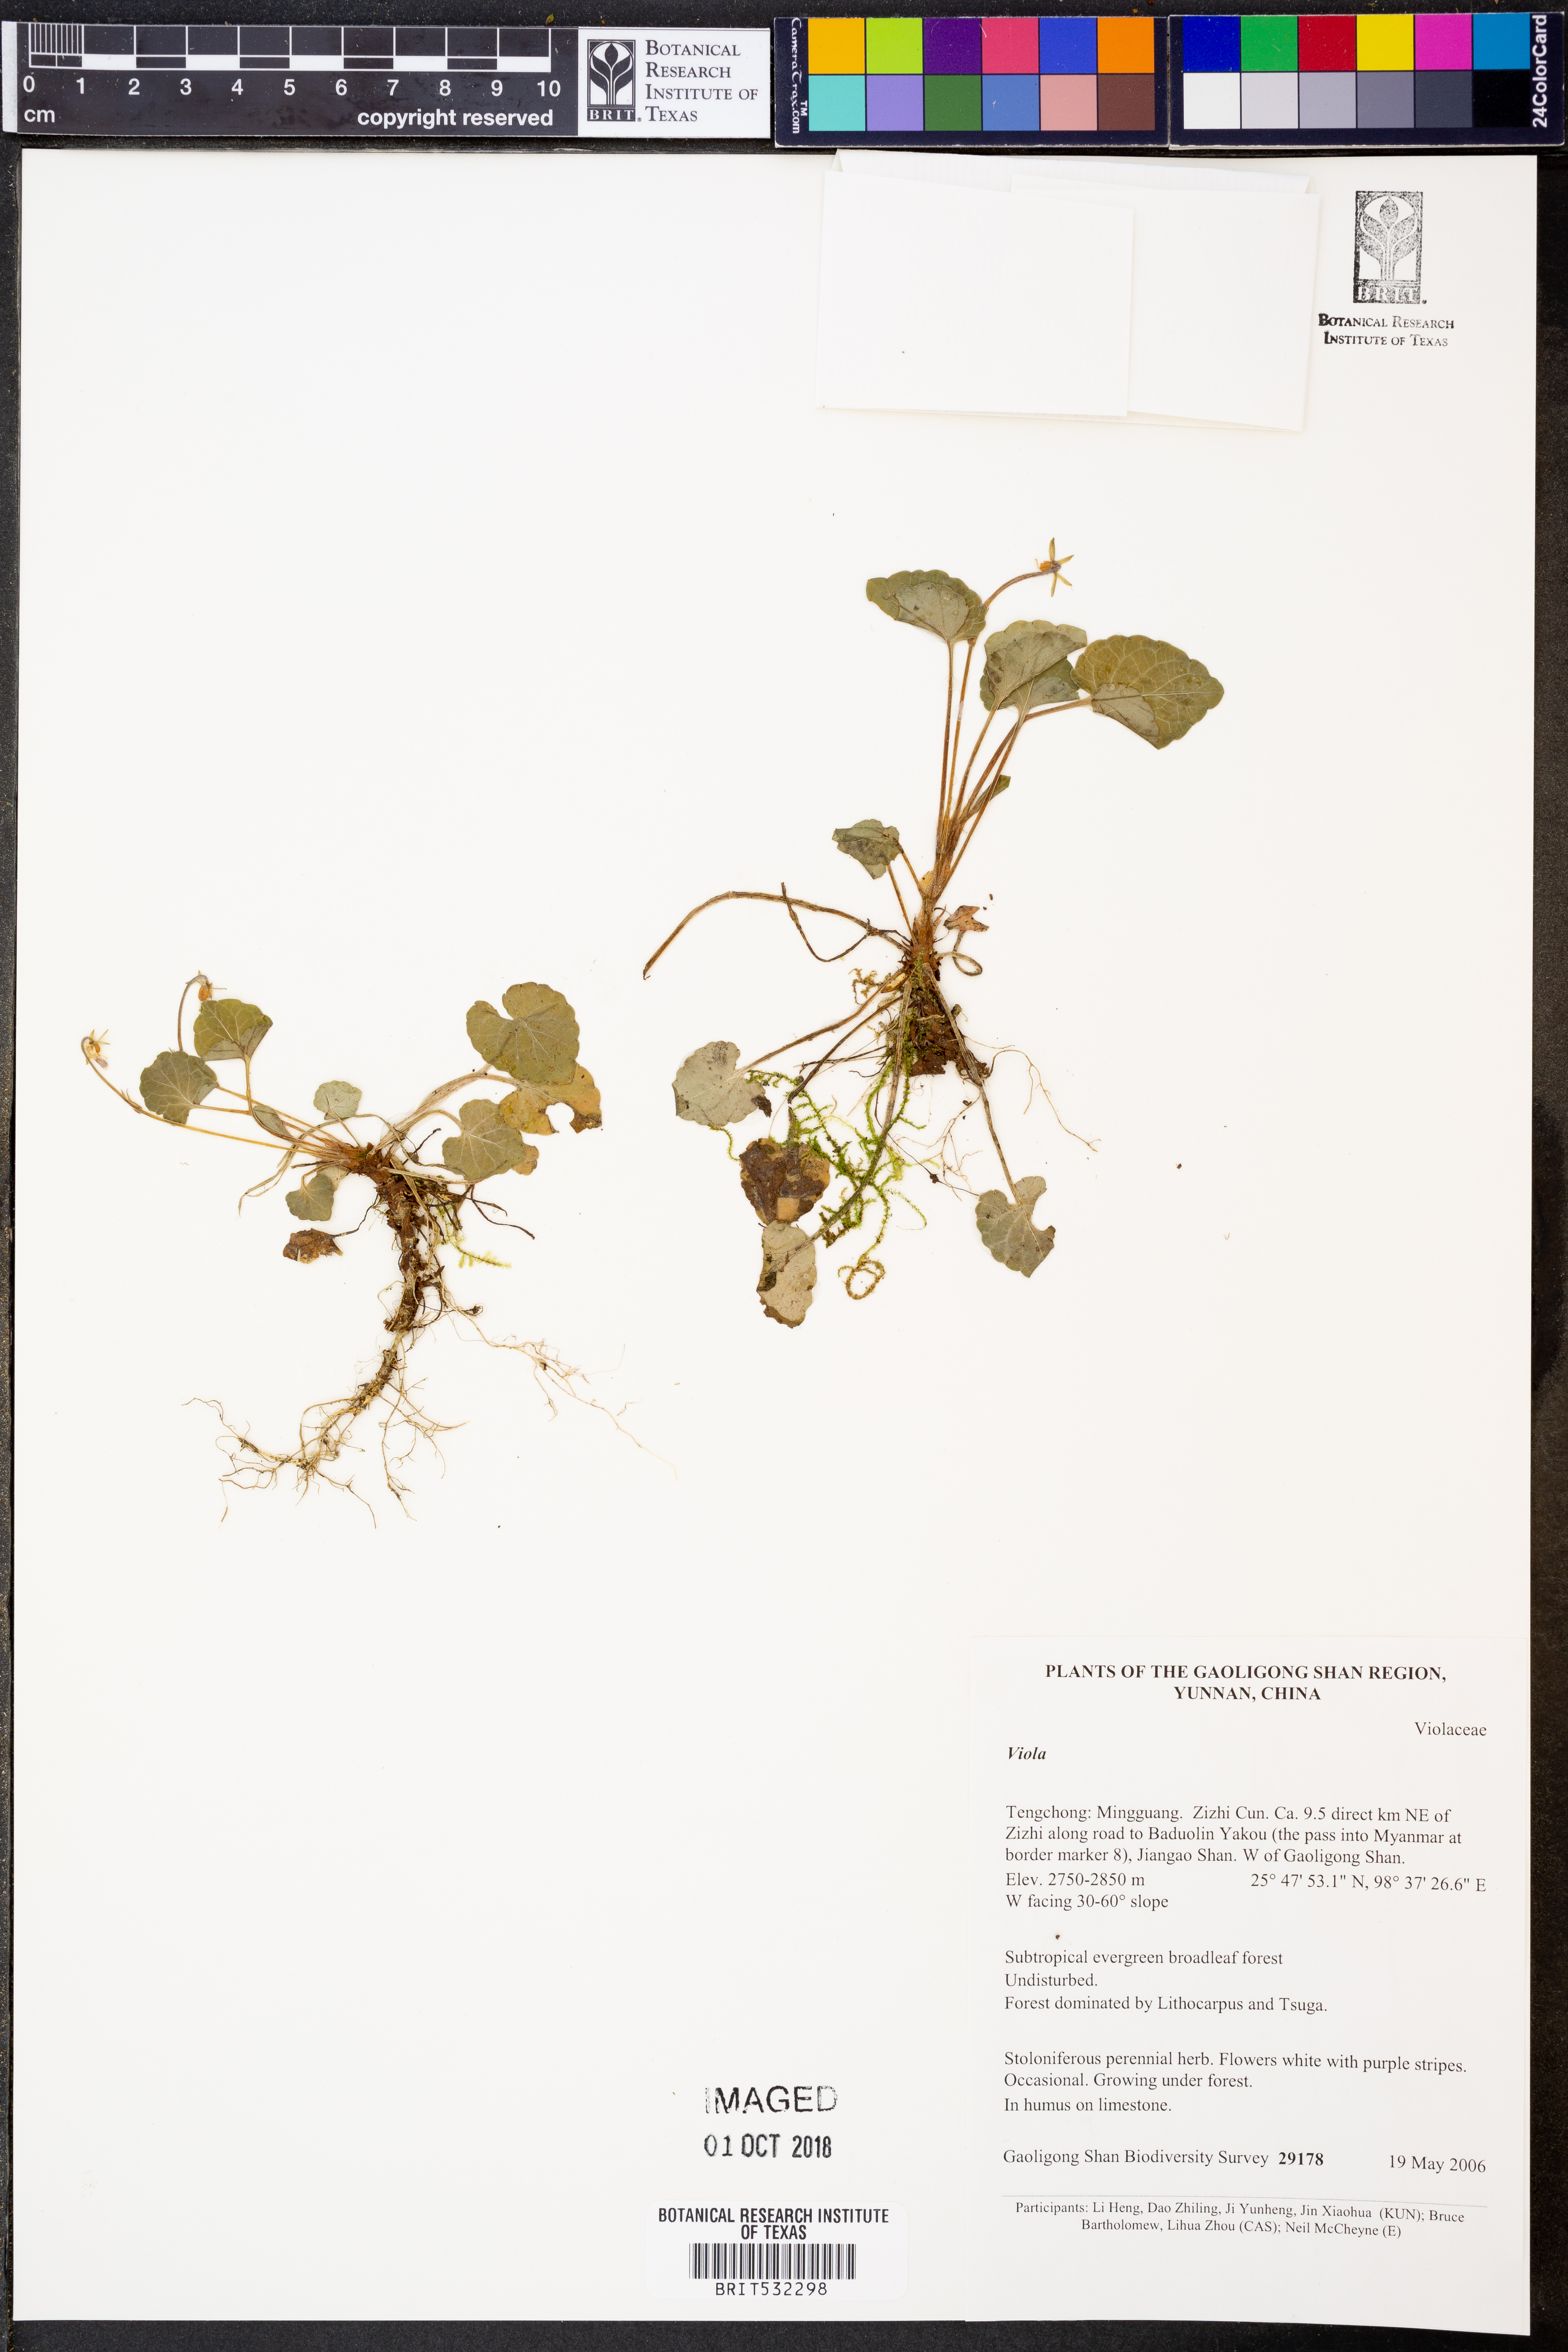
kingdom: Plantae
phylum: Tracheophyta
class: Magnoliopsida
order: Malpighiales
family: Violaceae
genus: Viola
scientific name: Viola
